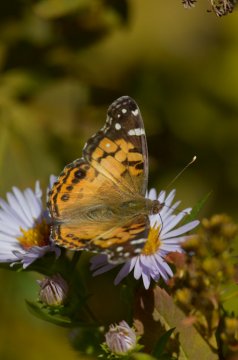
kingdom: Animalia
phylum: Arthropoda
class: Insecta
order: Lepidoptera
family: Nymphalidae
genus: Vanessa
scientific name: Vanessa virginiensis
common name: American Lady
